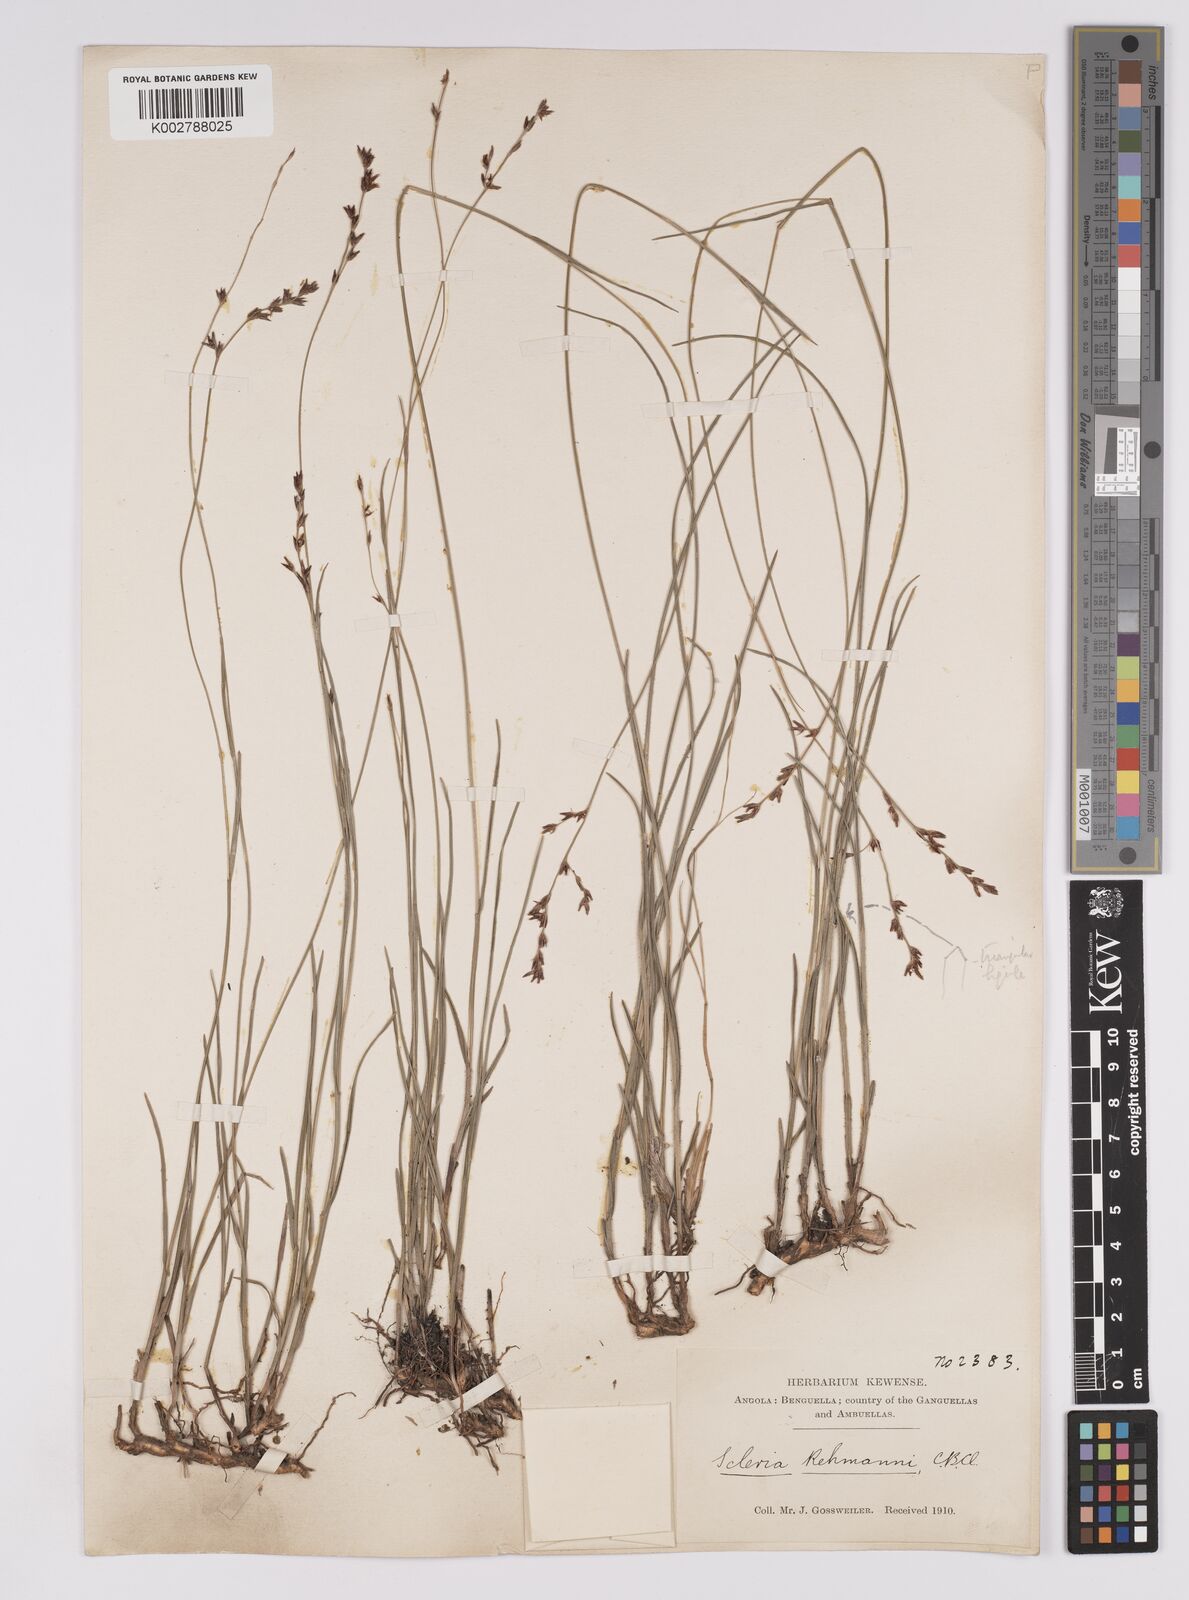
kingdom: Plantae
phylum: Tracheophyta
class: Liliopsida
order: Poales
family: Cyperaceae
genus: Scleria
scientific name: Scleria rehmannii
